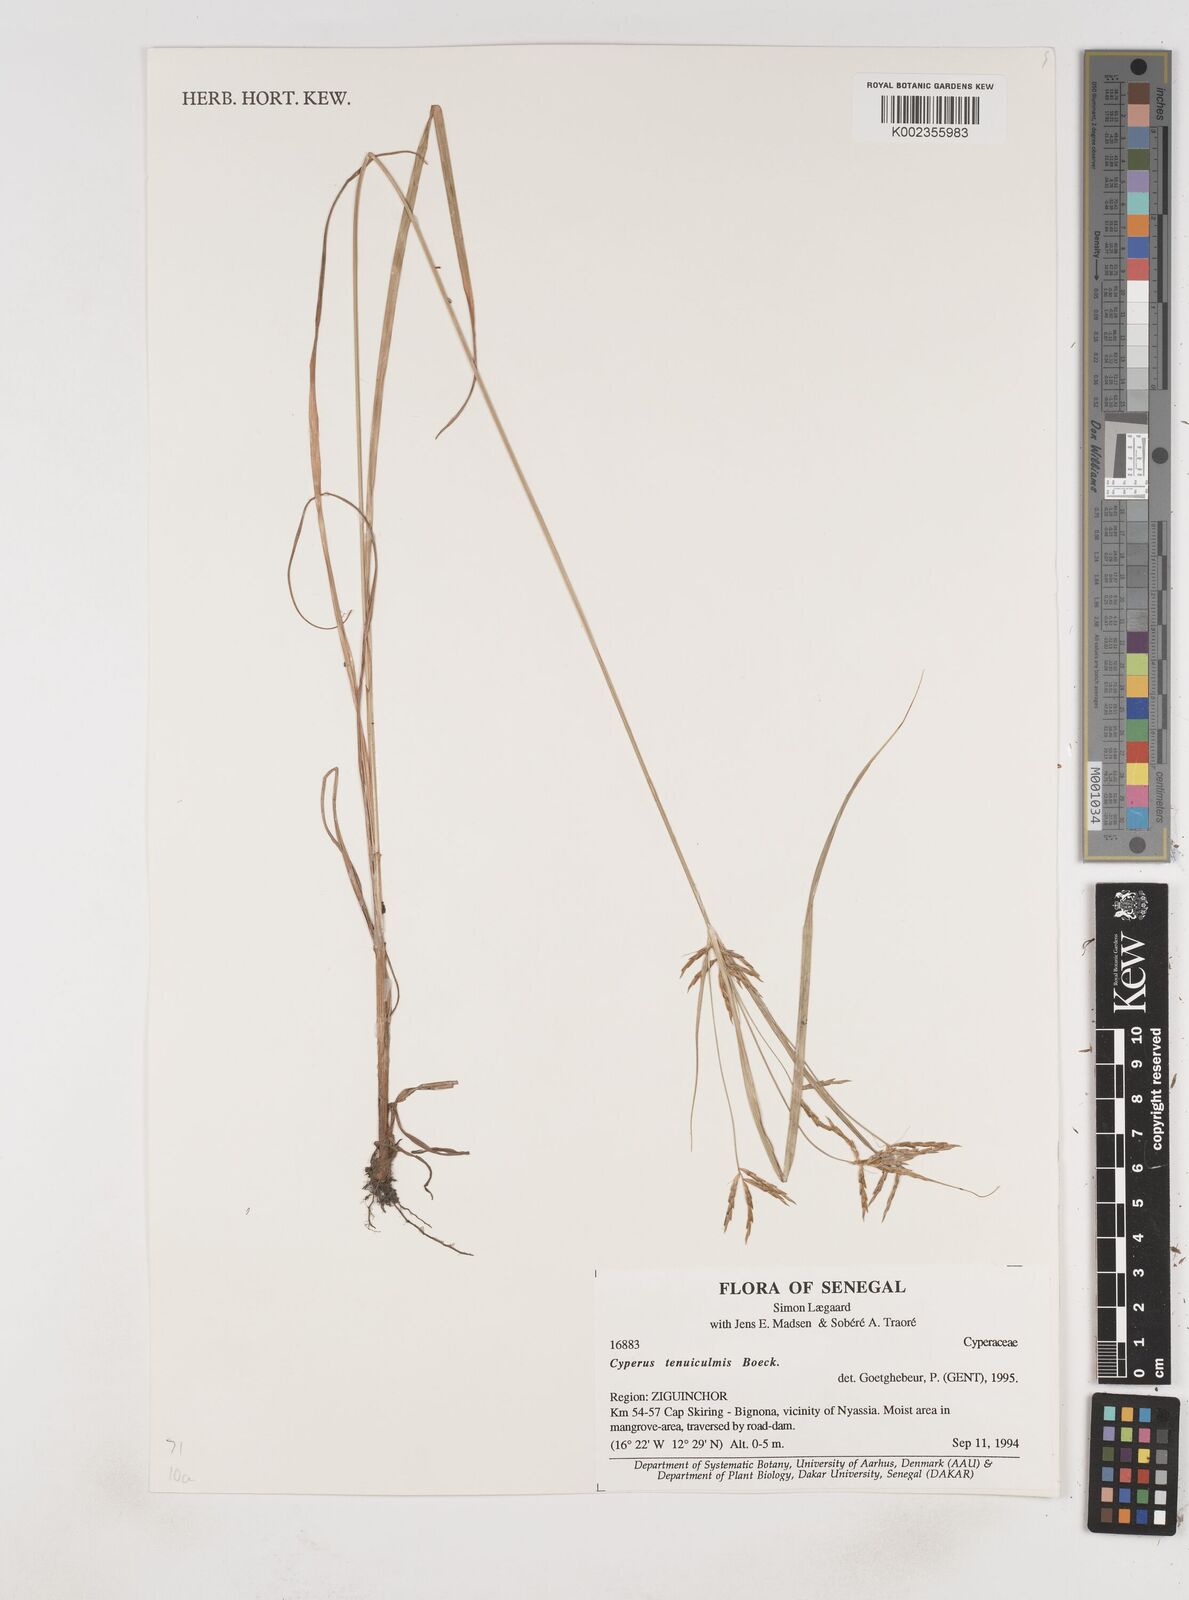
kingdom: Plantae
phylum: Tracheophyta
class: Liliopsida
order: Poales
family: Cyperaceae
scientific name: Cyperaceae
